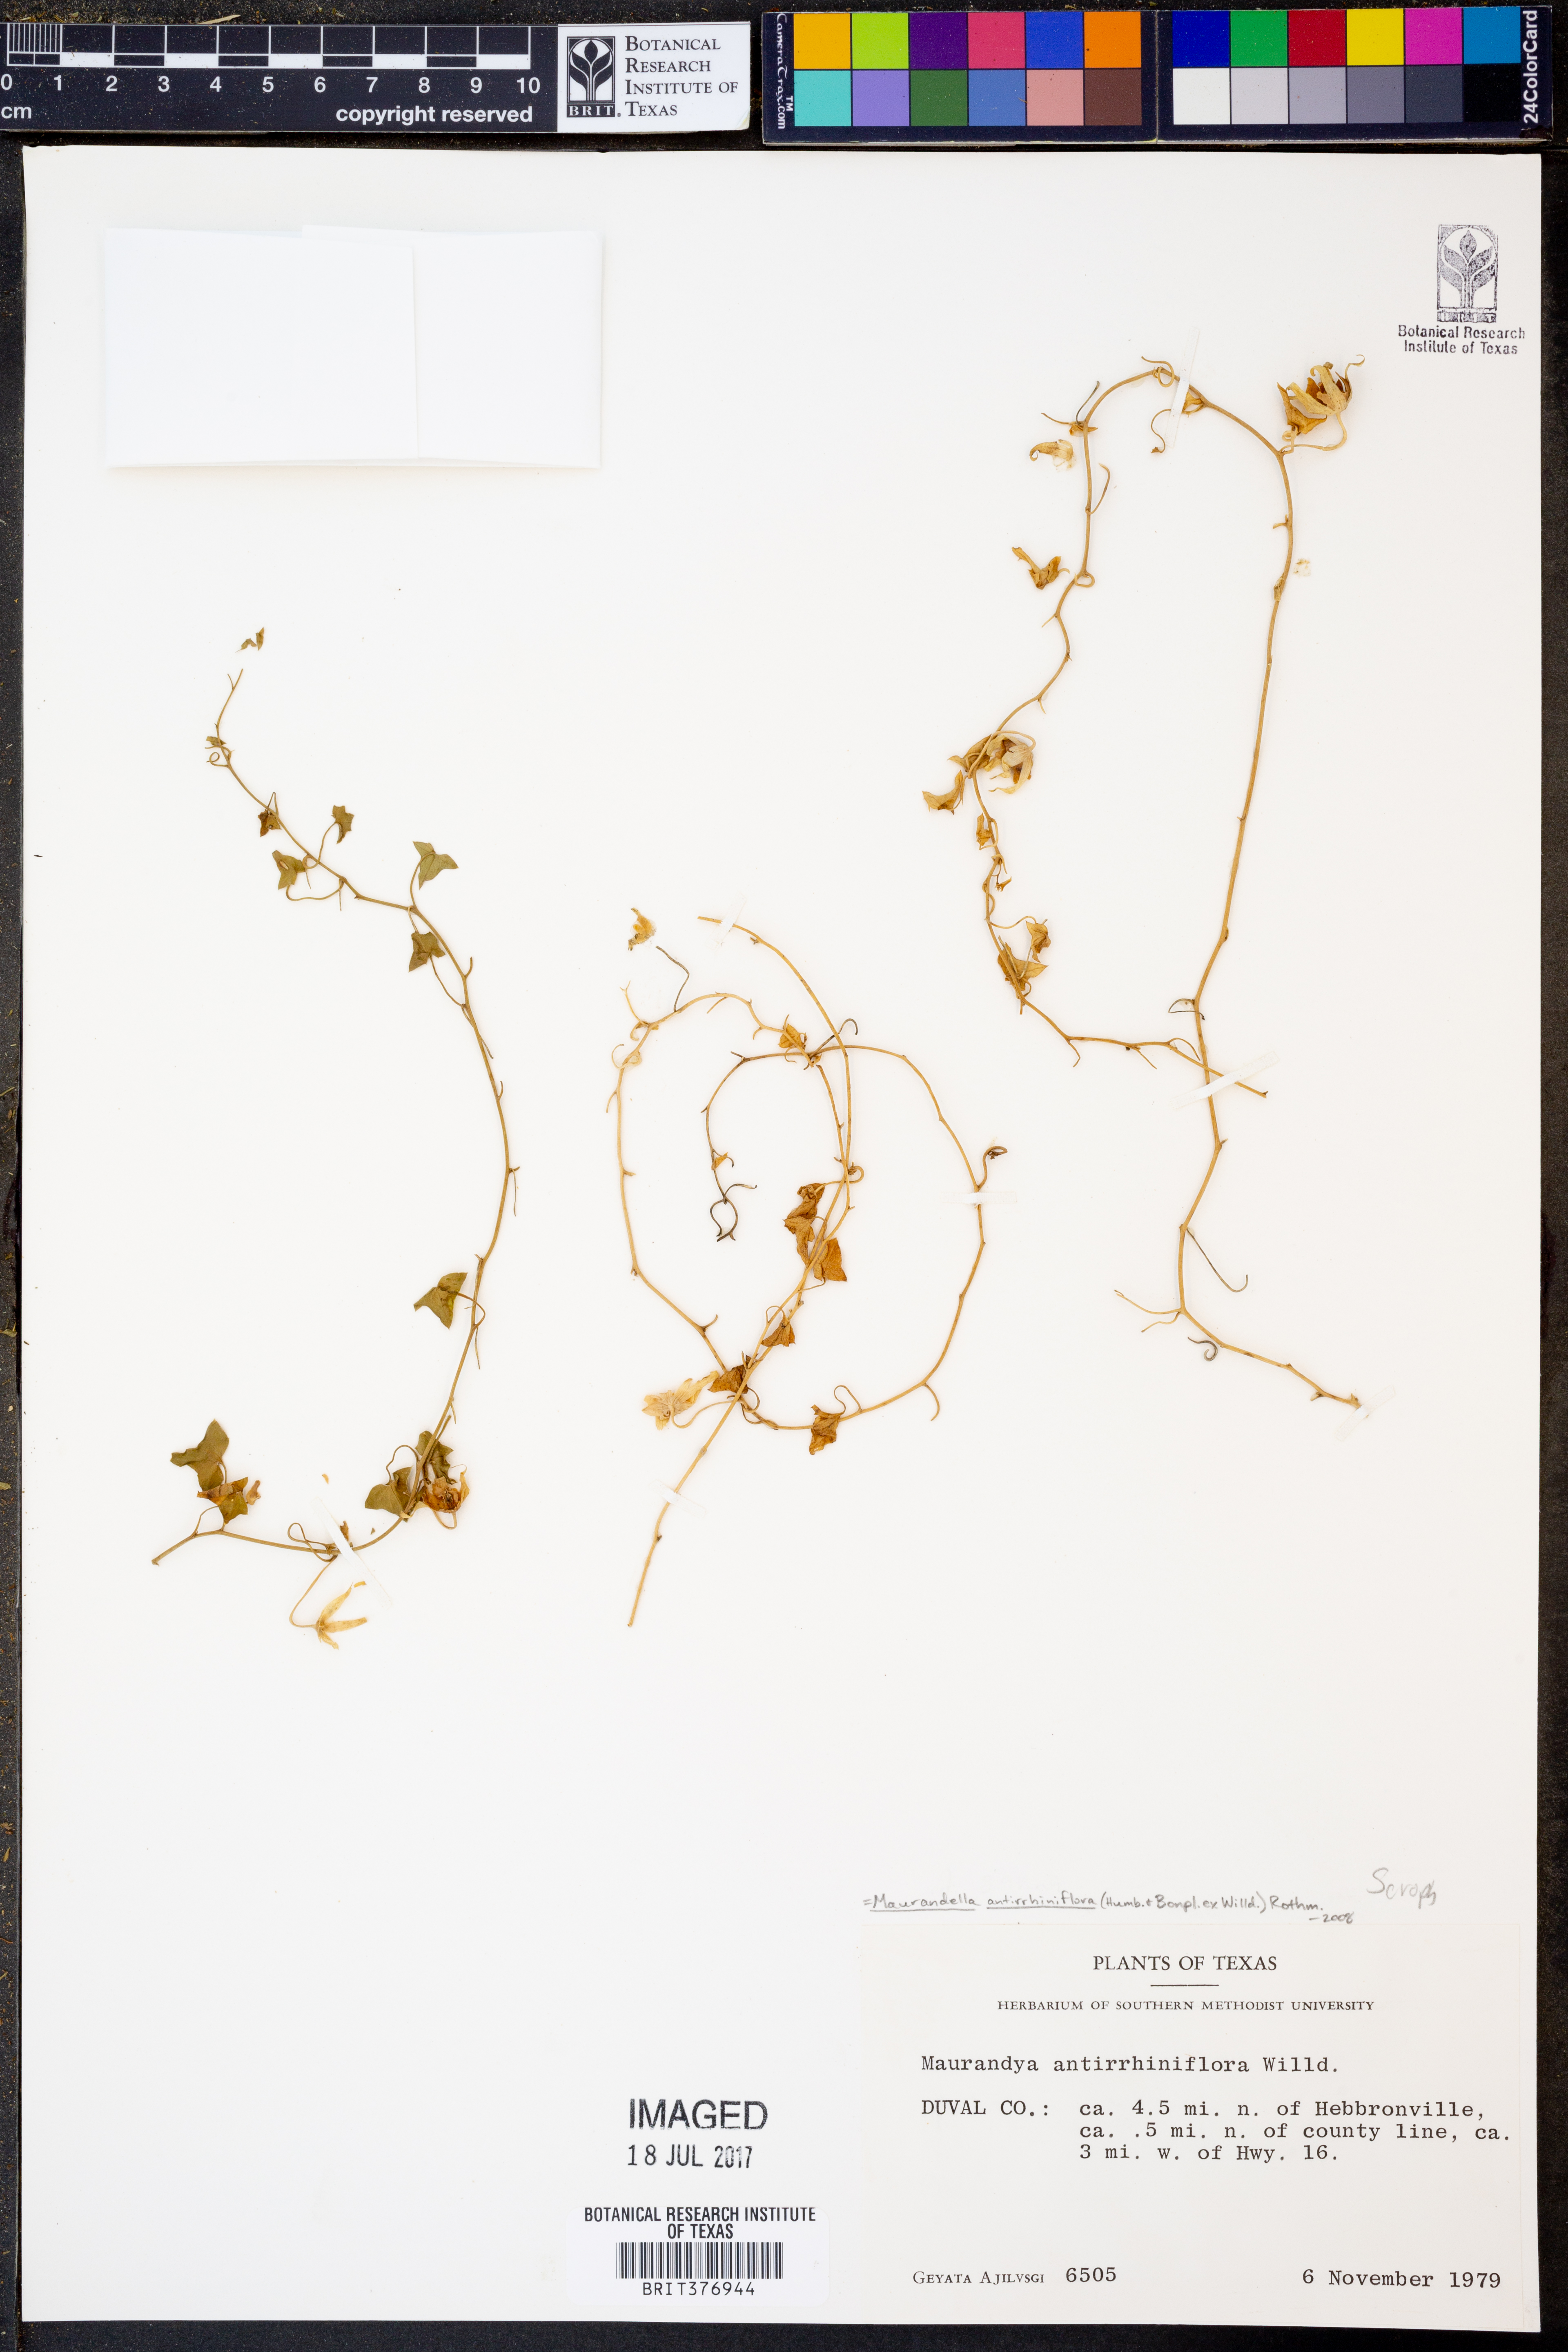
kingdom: Plantae
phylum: Tracheophyta
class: Magnoliopsida
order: Lamiales
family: Plantaginaceae
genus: Maurandella
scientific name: Maurandella antirrhiniflora
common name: Violet twining-snapdragon
